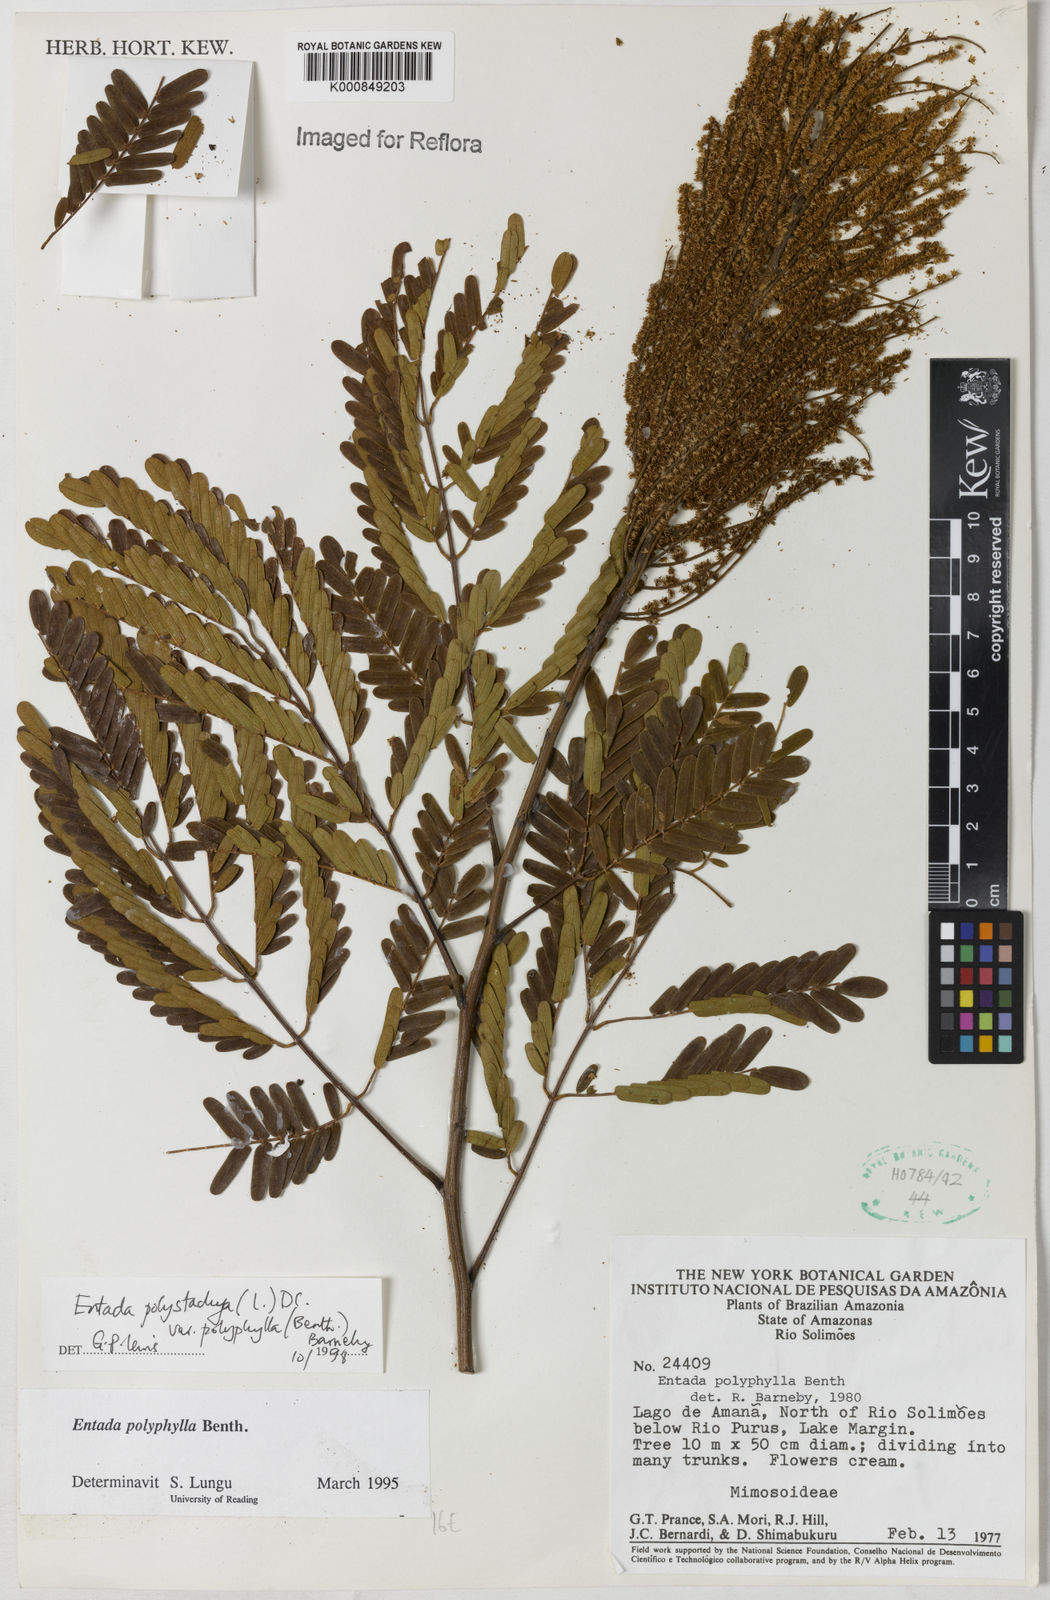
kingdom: Plantae
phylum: Tracheophyta
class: Magnoliopsida
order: Fabales
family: Fabaceae
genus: Entada
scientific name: Entada polyphylla
